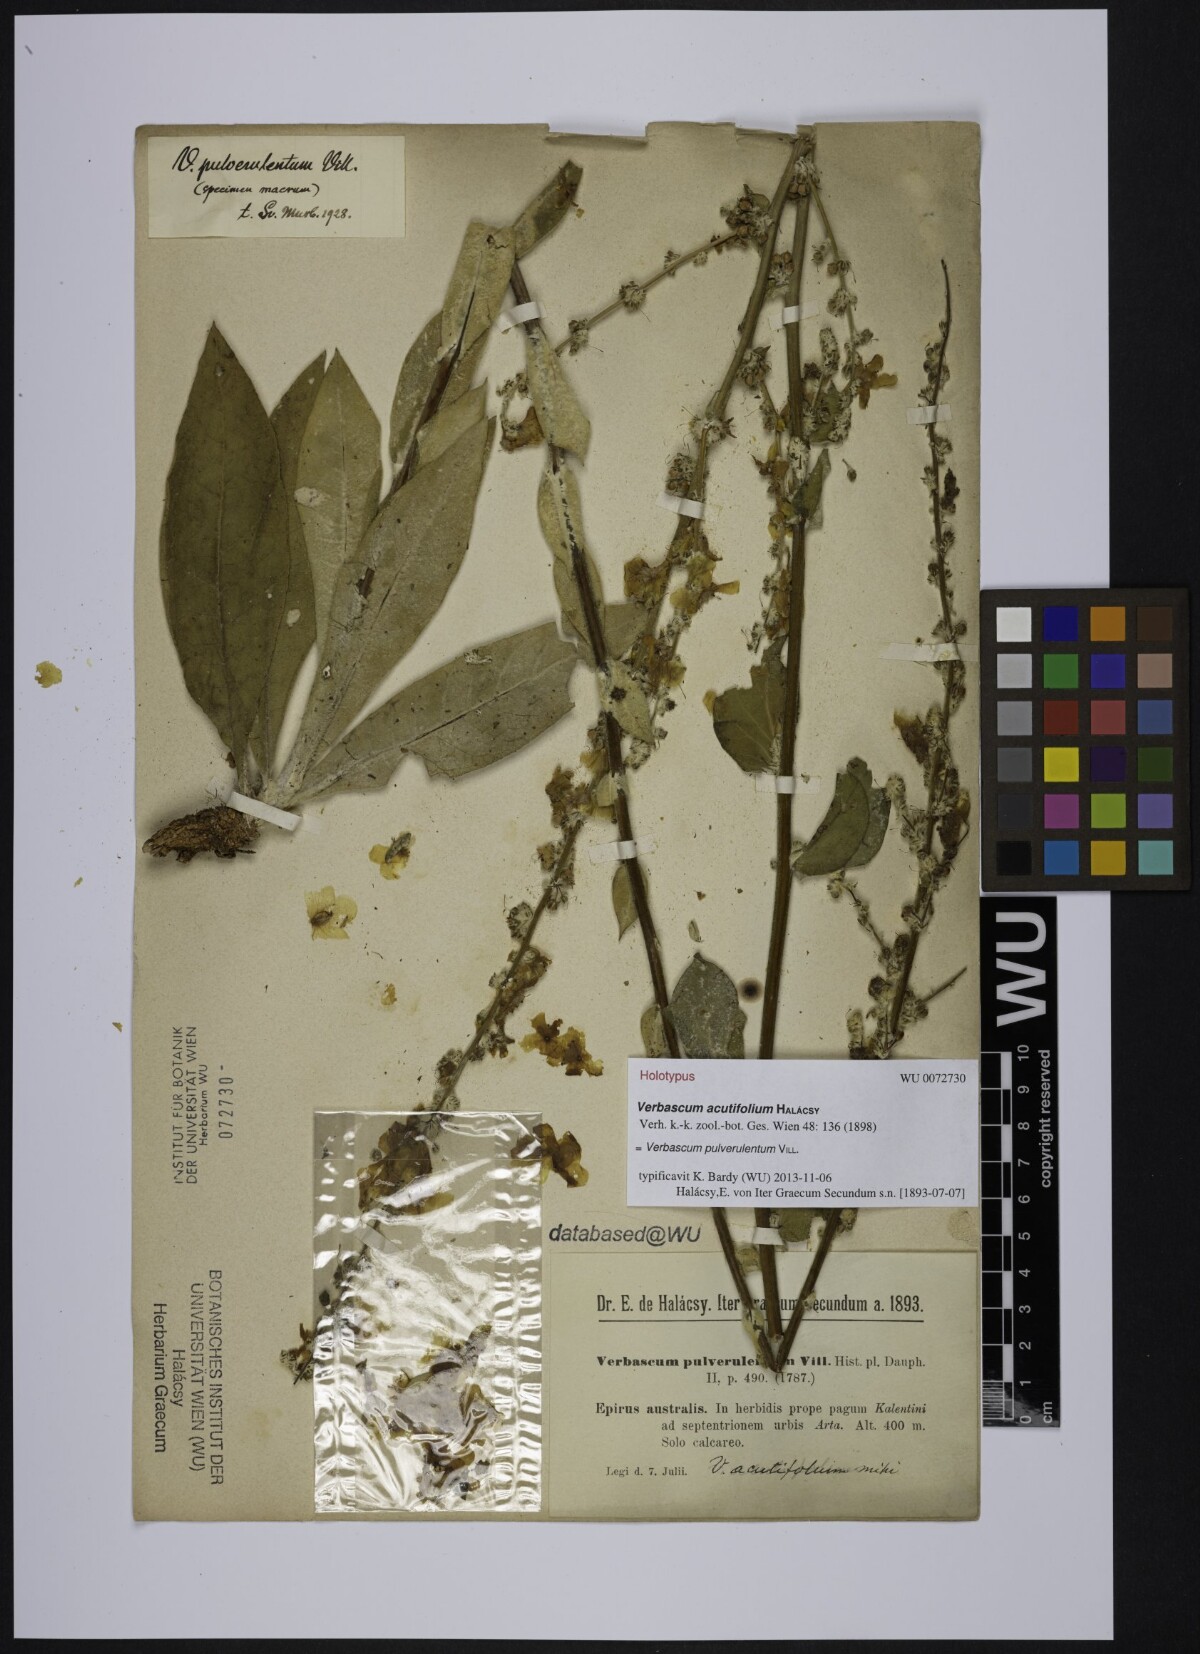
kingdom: Plantae
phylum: Tracheophyta
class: Magnoliopsida
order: Lamiales
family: Scrophulariaceae
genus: Verbascum
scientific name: Verbascum pulverulentum
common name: Broad-leaf mullein
